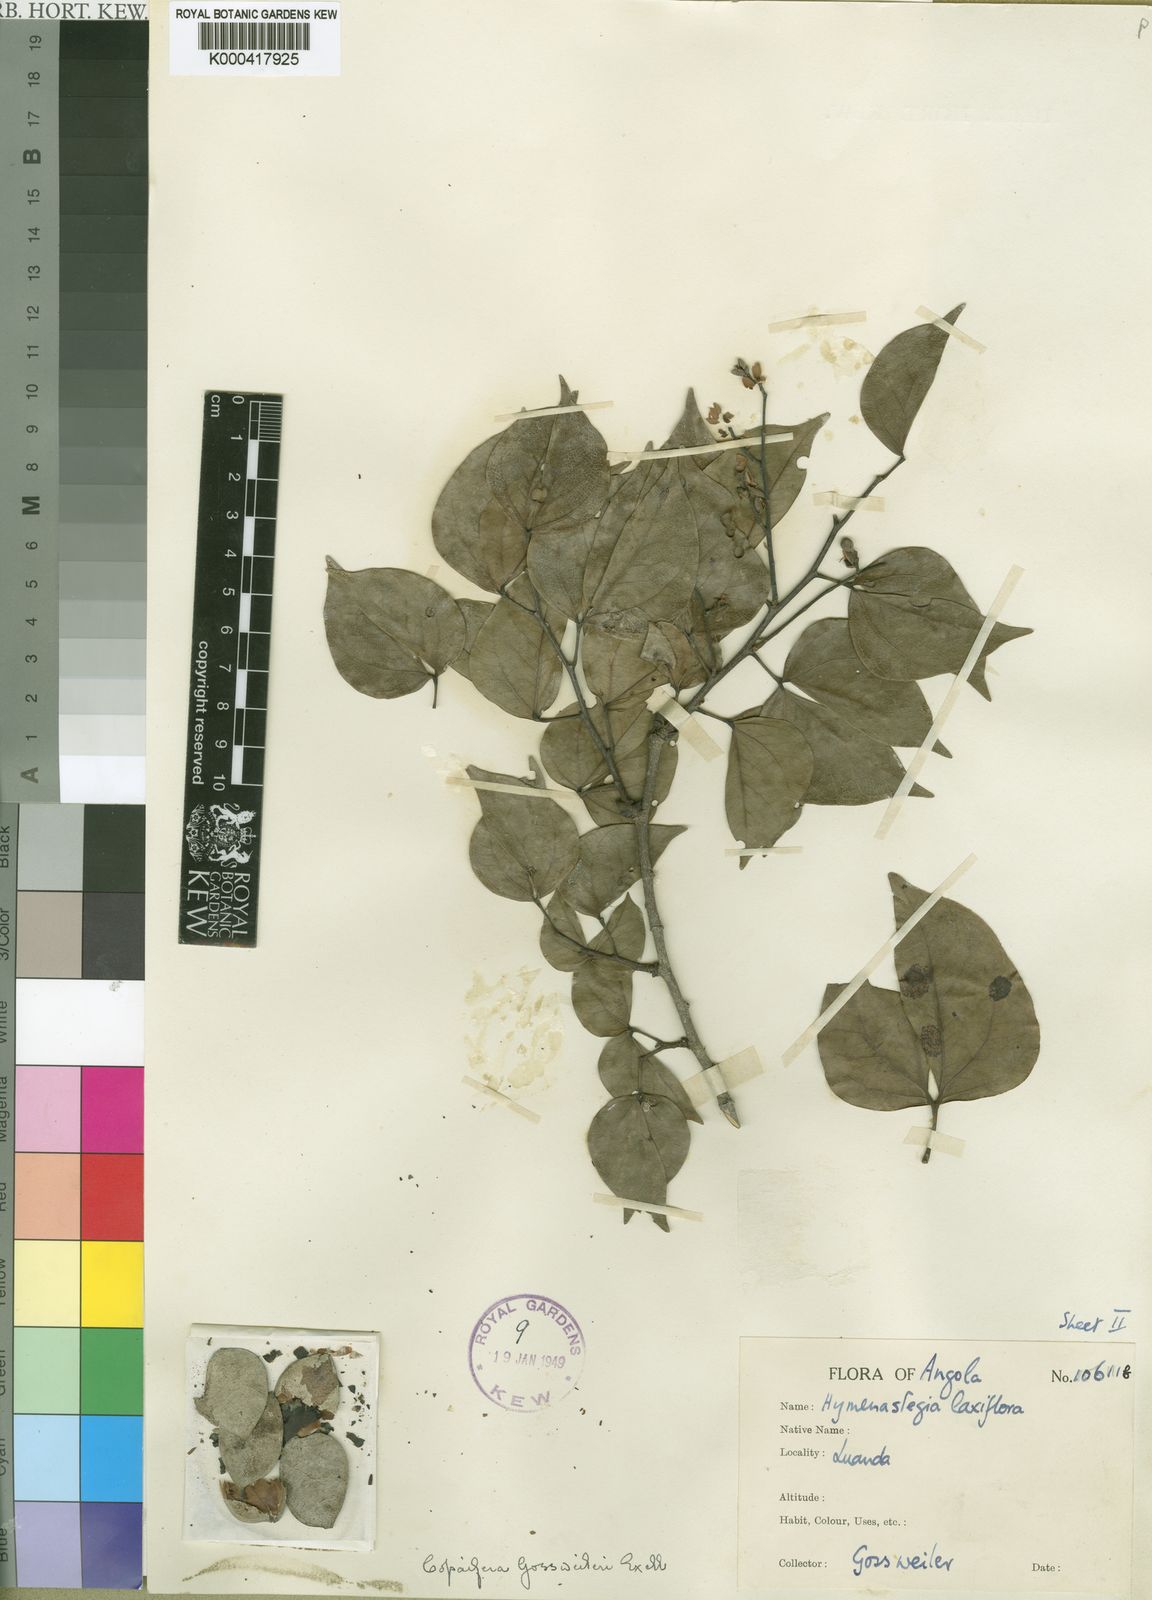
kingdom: Plantae
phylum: Tracheophyta
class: Magnoliopsida
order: Fabales
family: Fabaceae
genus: Guibourtia
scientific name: Guibourtia
